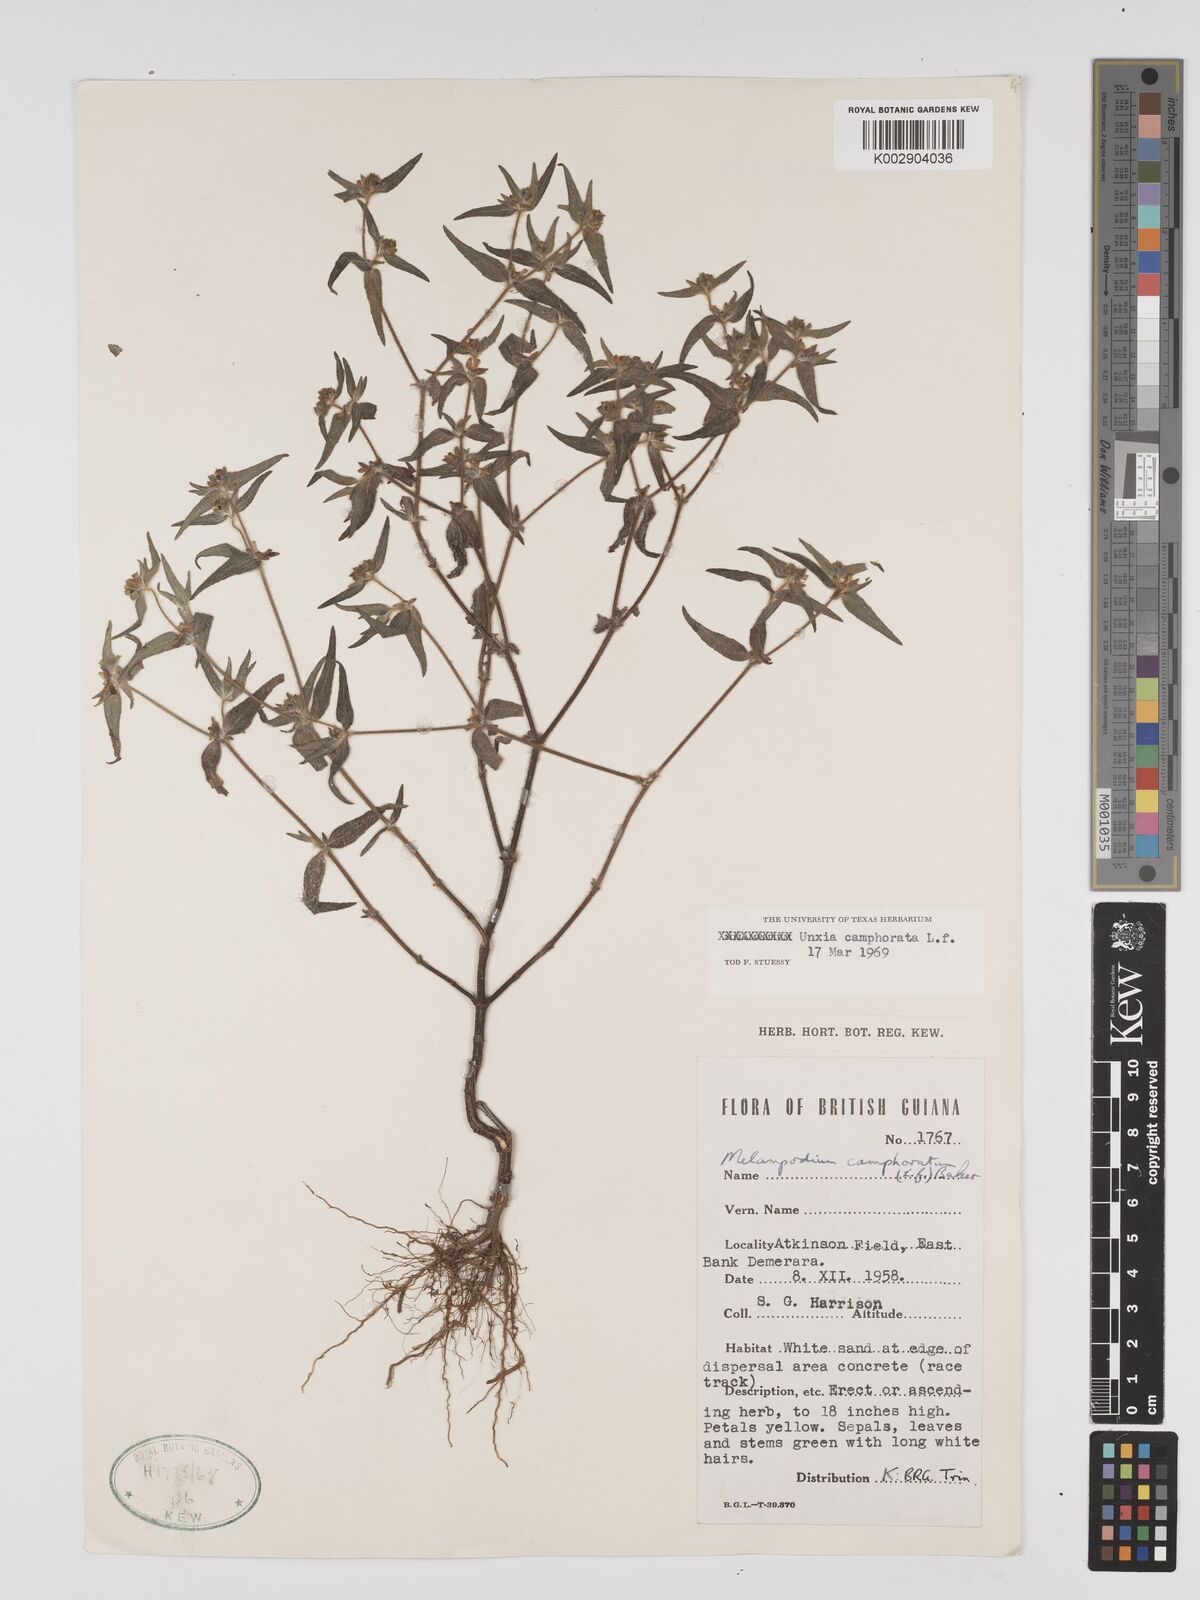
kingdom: Plantae
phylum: Tracheophyta
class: Magnoliopsida
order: Asterales
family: Asteraceae
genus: Unxia
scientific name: Unxia camphorata
